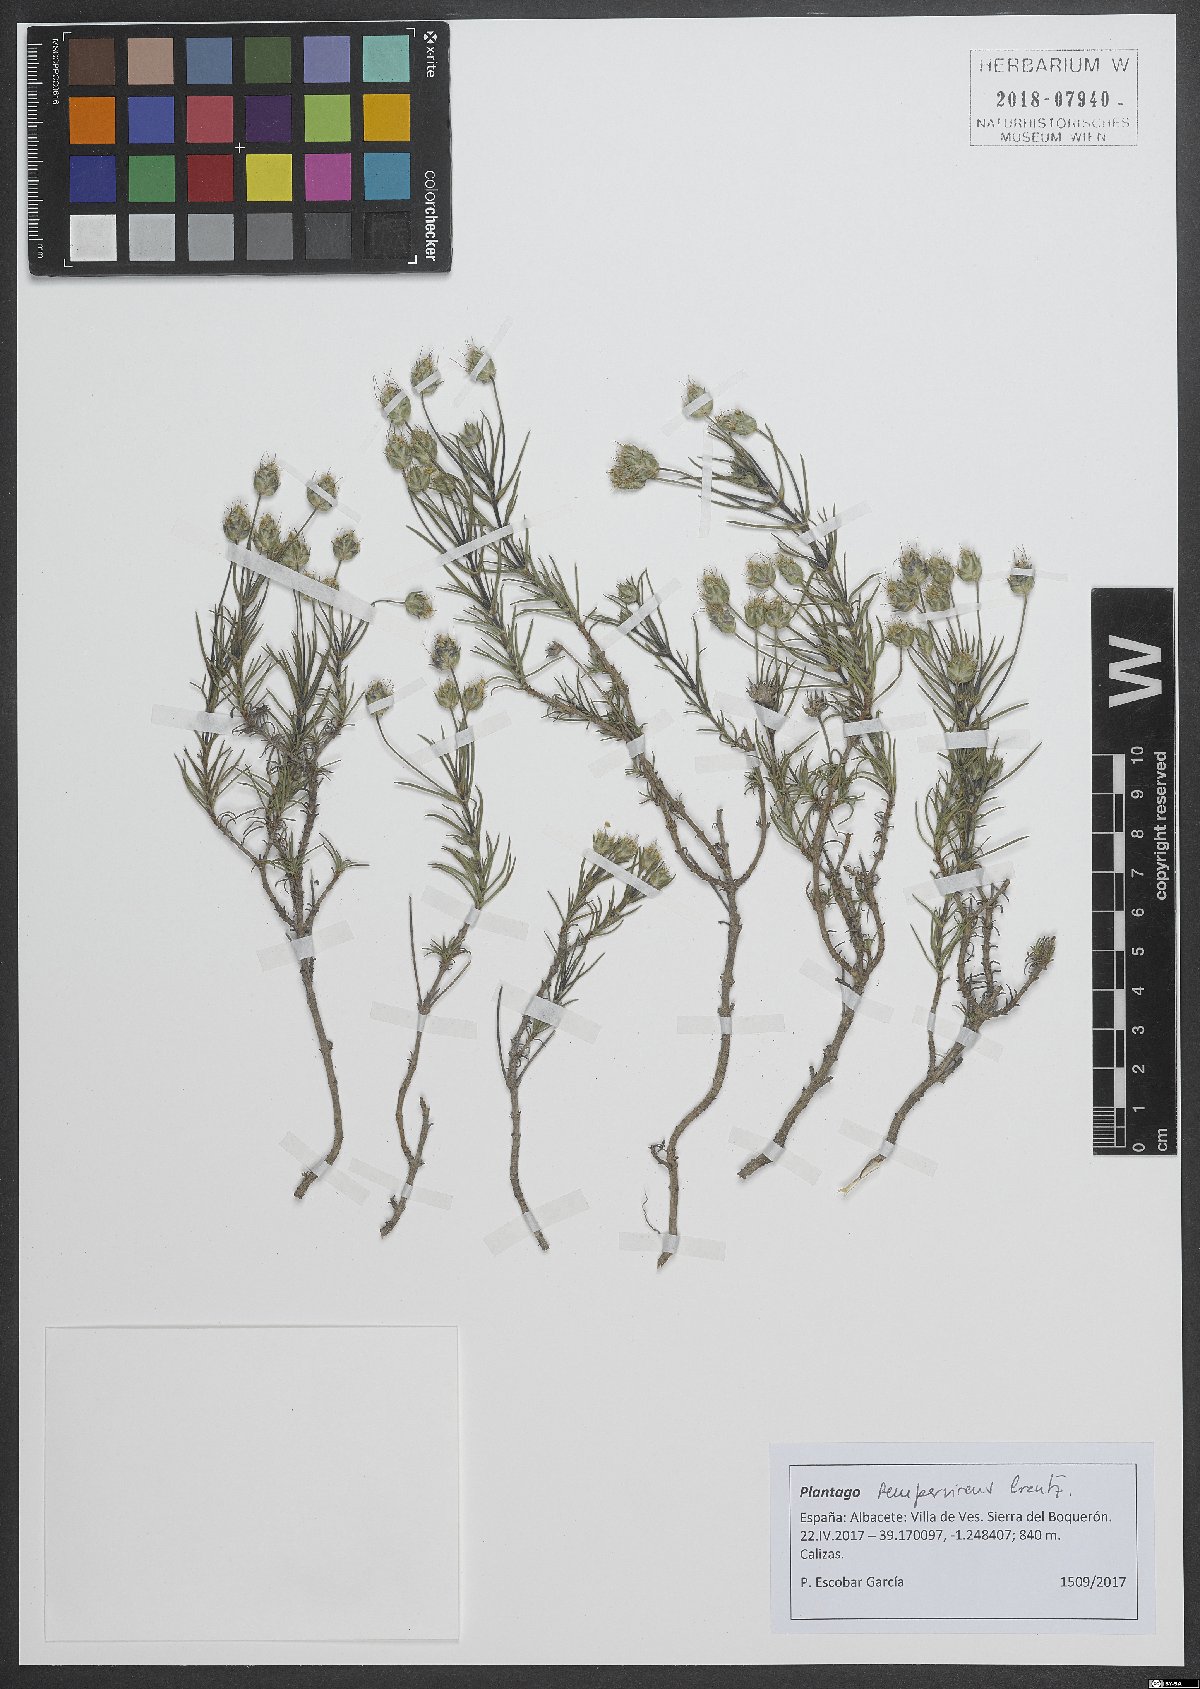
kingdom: Plantae
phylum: Tracheophyta
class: Magnoliopsida
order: Lamiales
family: Plantaginaceae
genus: Plantago
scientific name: Plantago sempervirens
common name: Shrubby plantain
